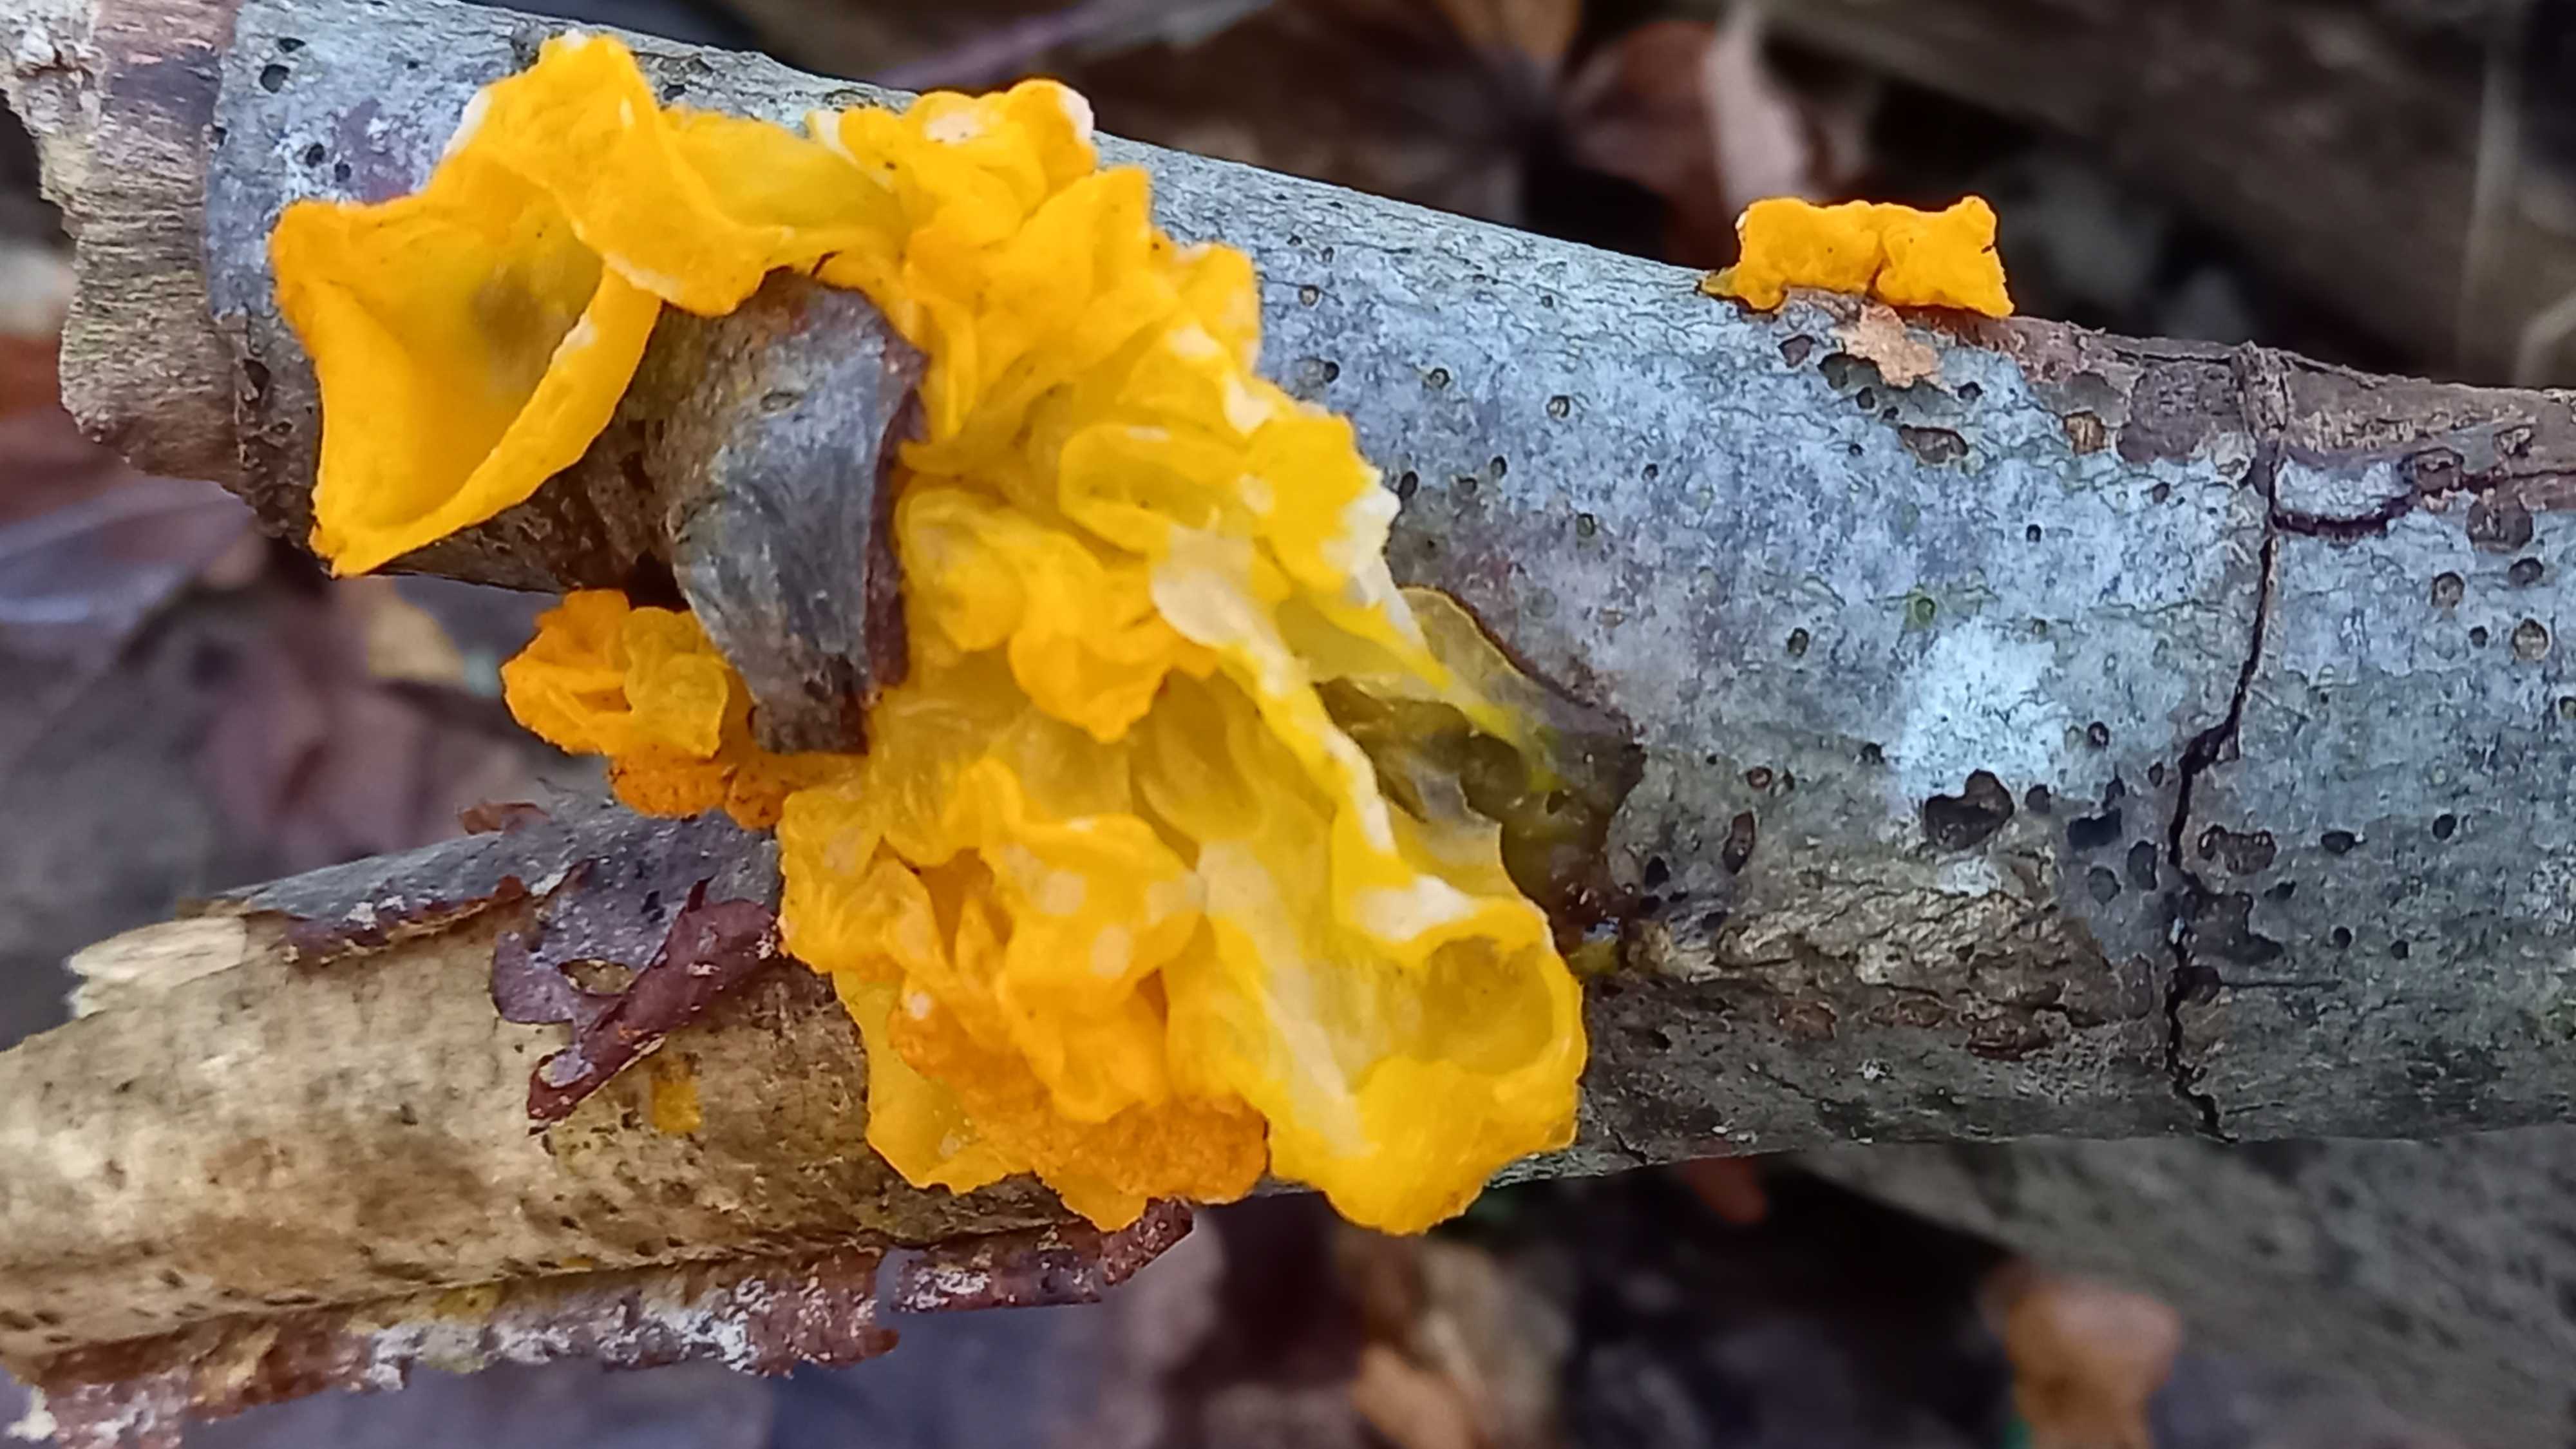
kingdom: Fungi
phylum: Basidiomycota
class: Tremellomycetes
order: Tremellales
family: Tremellaceae
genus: Tremella
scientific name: Tremella mesenterica
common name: gul bævresvamp
